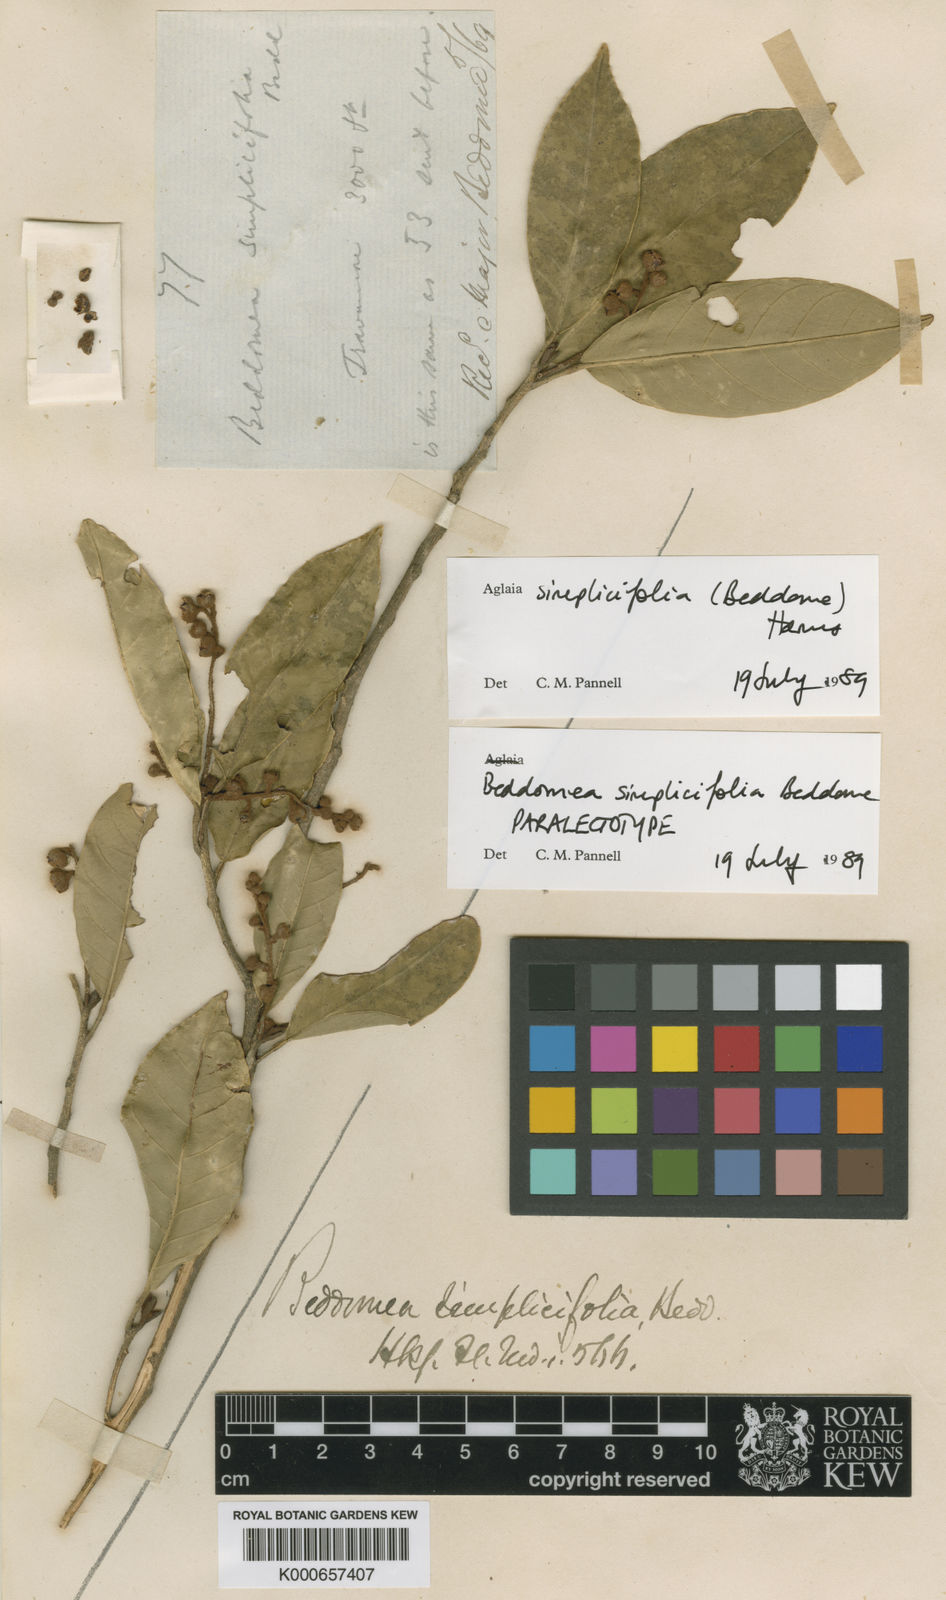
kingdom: Plantae
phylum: Tracheophyta
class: Magnoliopsida
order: Sapindales
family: Meliaceae
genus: Aglaia
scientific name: Aglaia simplicifolia
